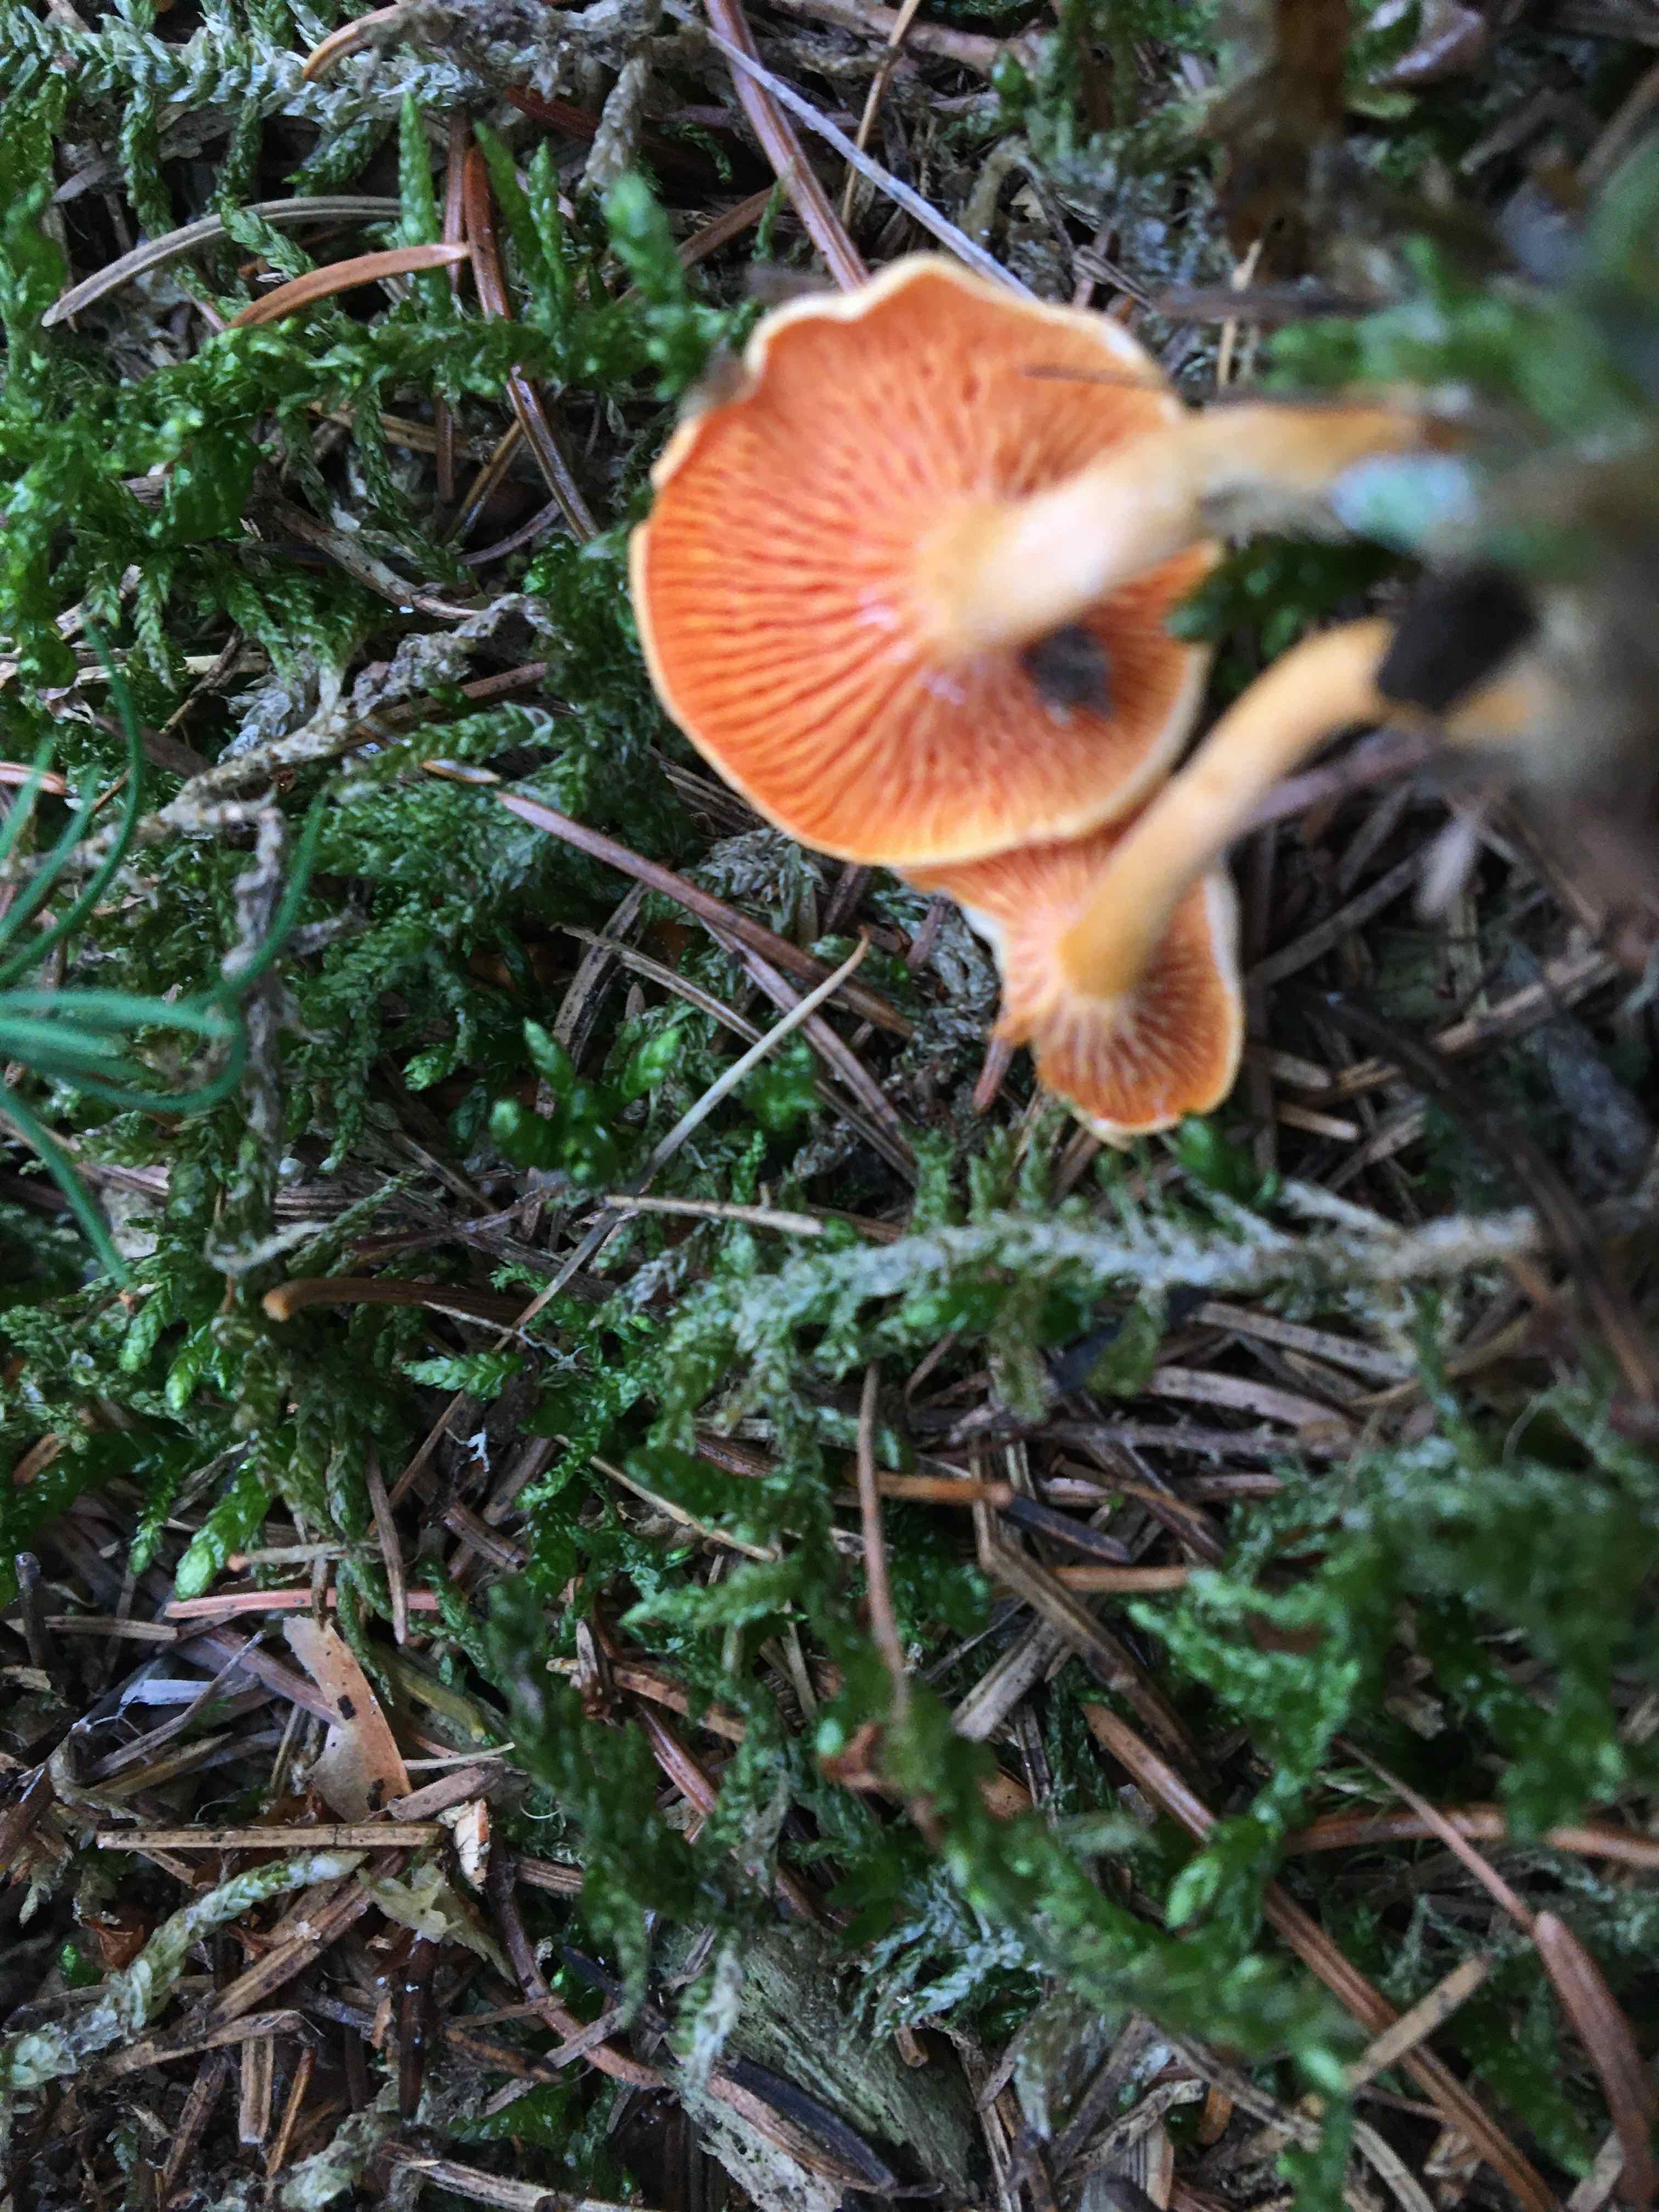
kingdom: Fungi
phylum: Basidiomycota
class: Agaricomycetes
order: Boletales
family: Hygrophoropsidaceae
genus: Hygrophoropsis
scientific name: Hygrophoropsis aurantiaca
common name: almindelig orangekantarel
